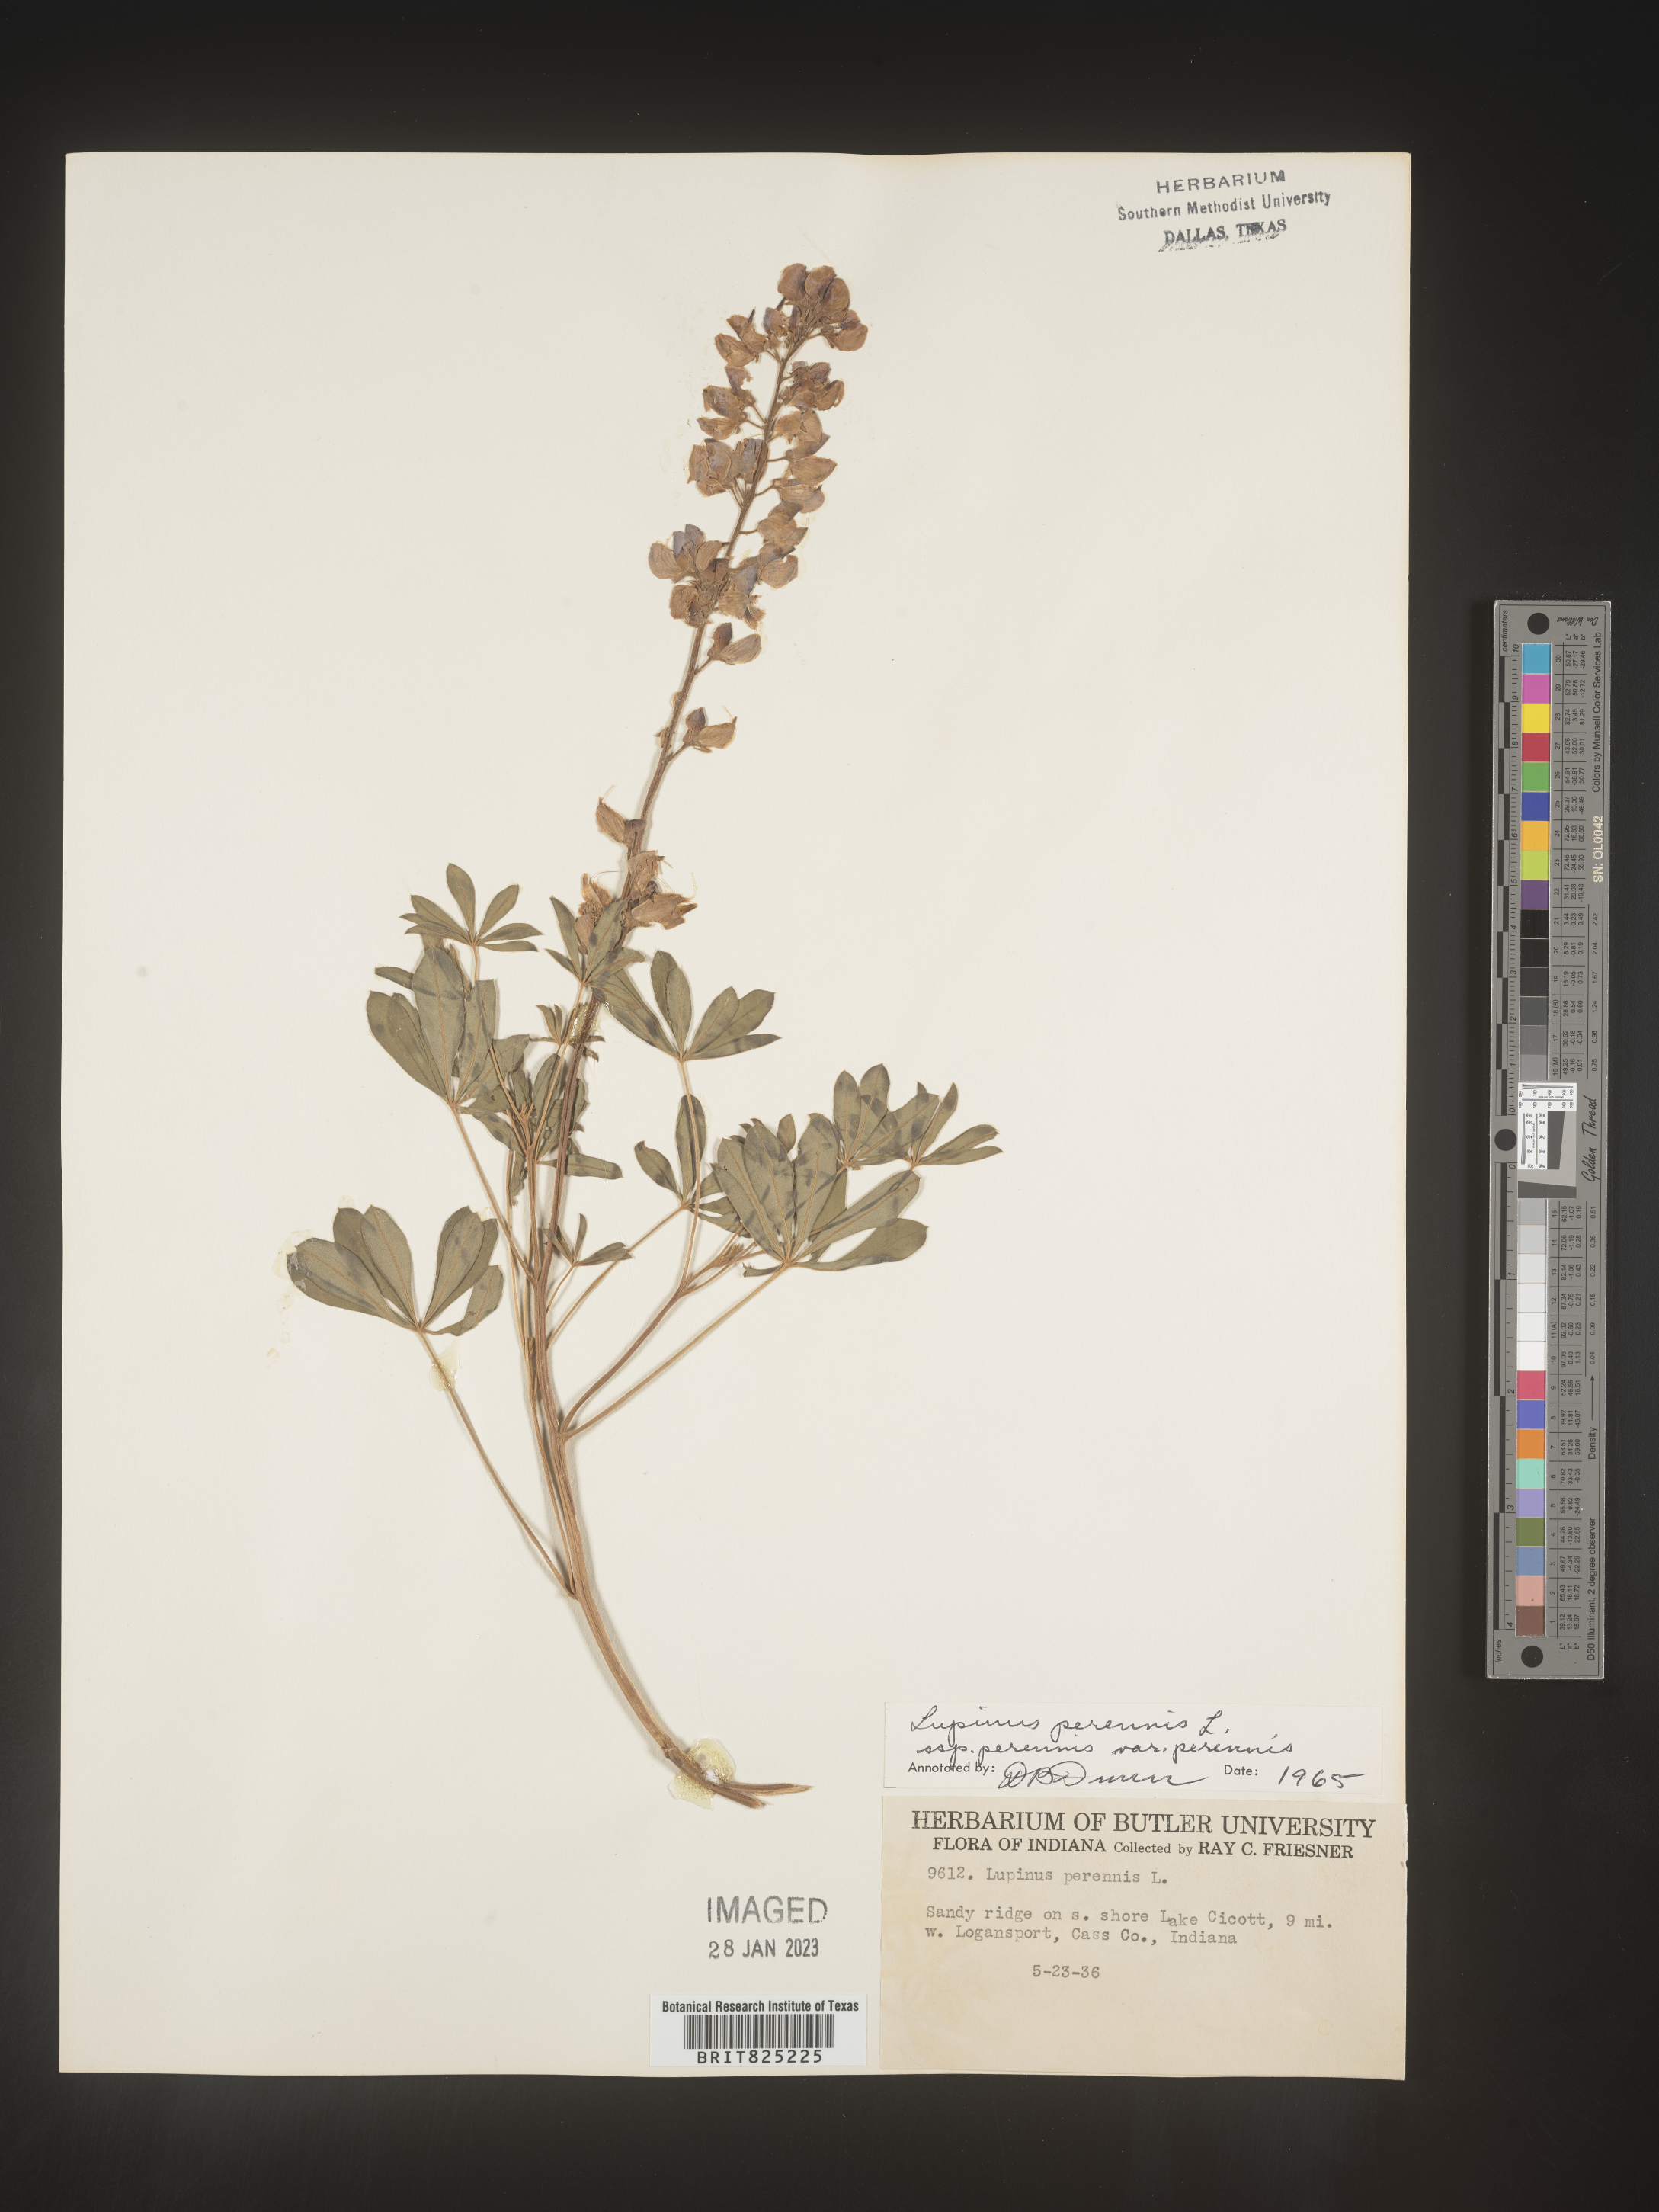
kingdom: Plantae
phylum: Tracheophyta
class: Magnoliopsida
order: Fabales
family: Fabaceae
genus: Lupinus
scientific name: Lupinus perennis
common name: Sundial lupine
